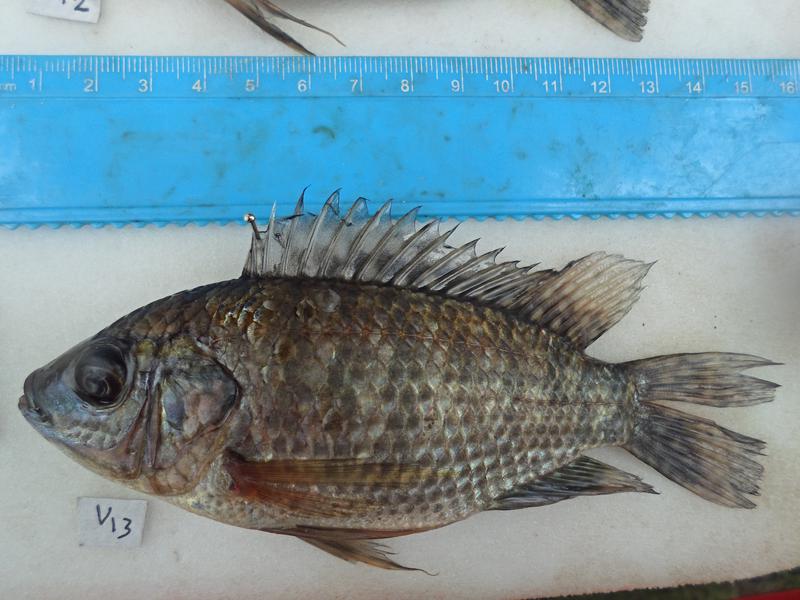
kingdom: Animalia
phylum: Chordata
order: Perciformes
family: Cichlidae
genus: Oreochromis
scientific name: Oreochromis leucostictus
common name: Blue spotted tilapia
